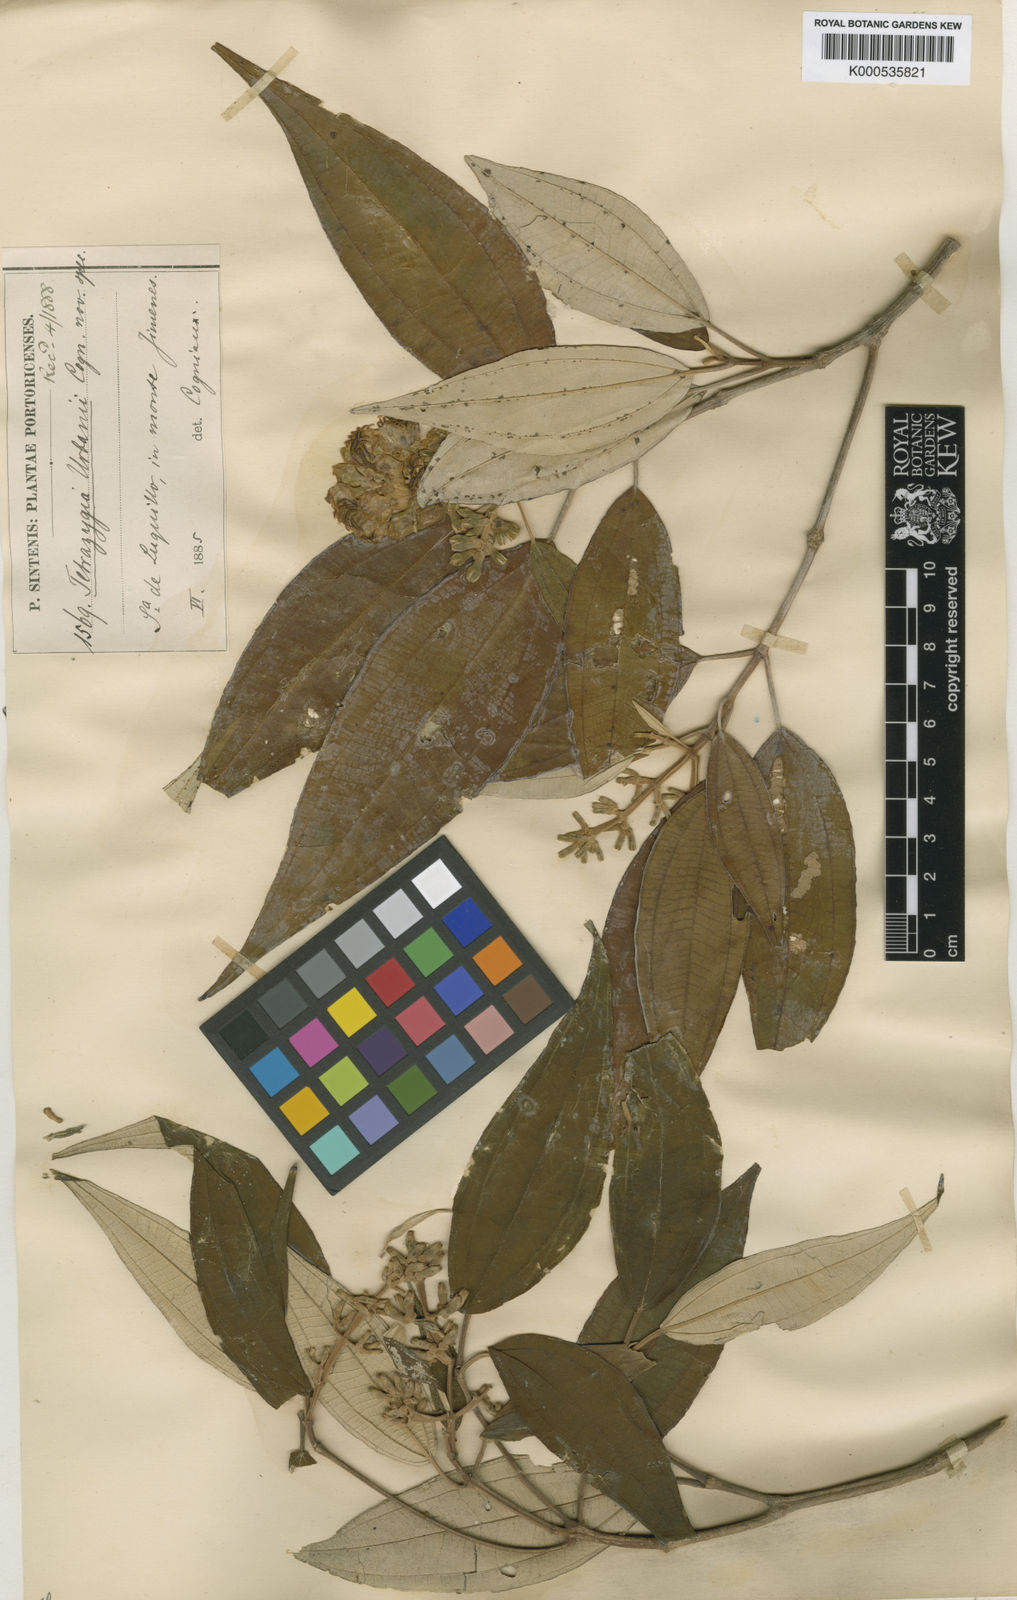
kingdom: Plantae
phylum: Tracheophyta
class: Magnoliopsida
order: Myrtales
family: Melastomataceae
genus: Miconia
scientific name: Miconia urbanii
